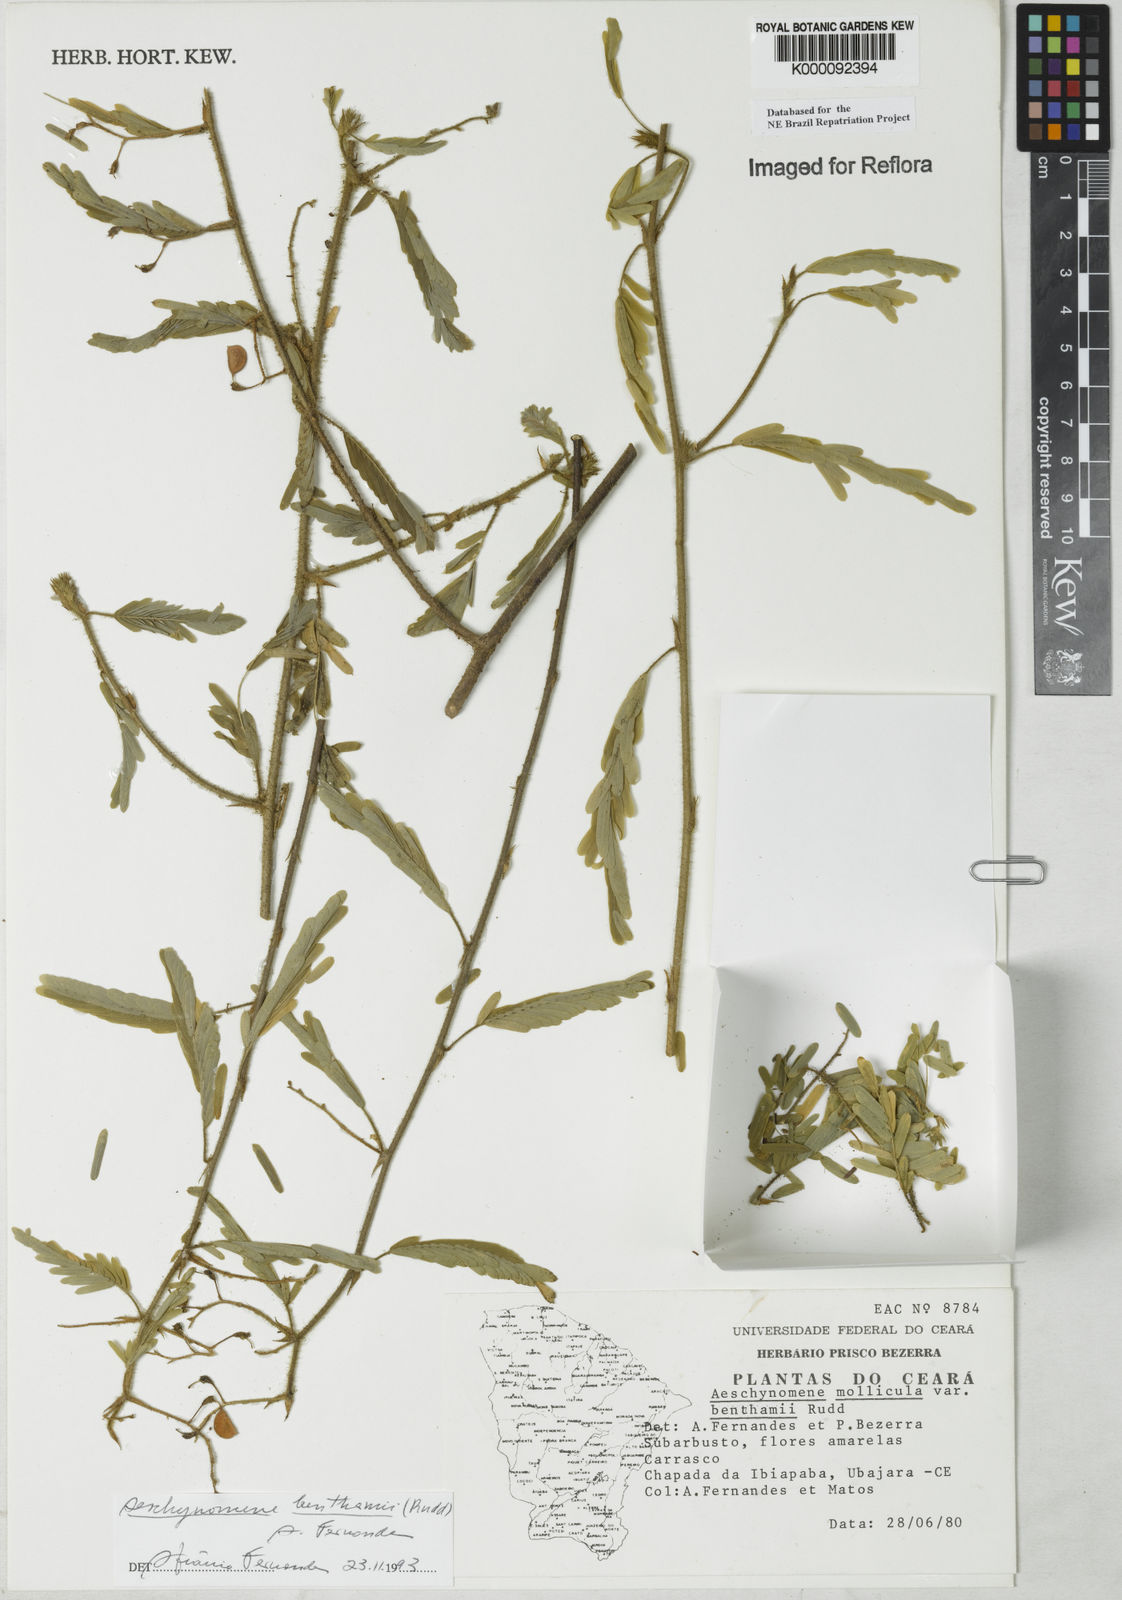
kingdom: Plantae
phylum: Tracheophyta
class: Magnoliopsida
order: Fabales
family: Fabaceae
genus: Aeschynomene
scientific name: Aeschynomene
